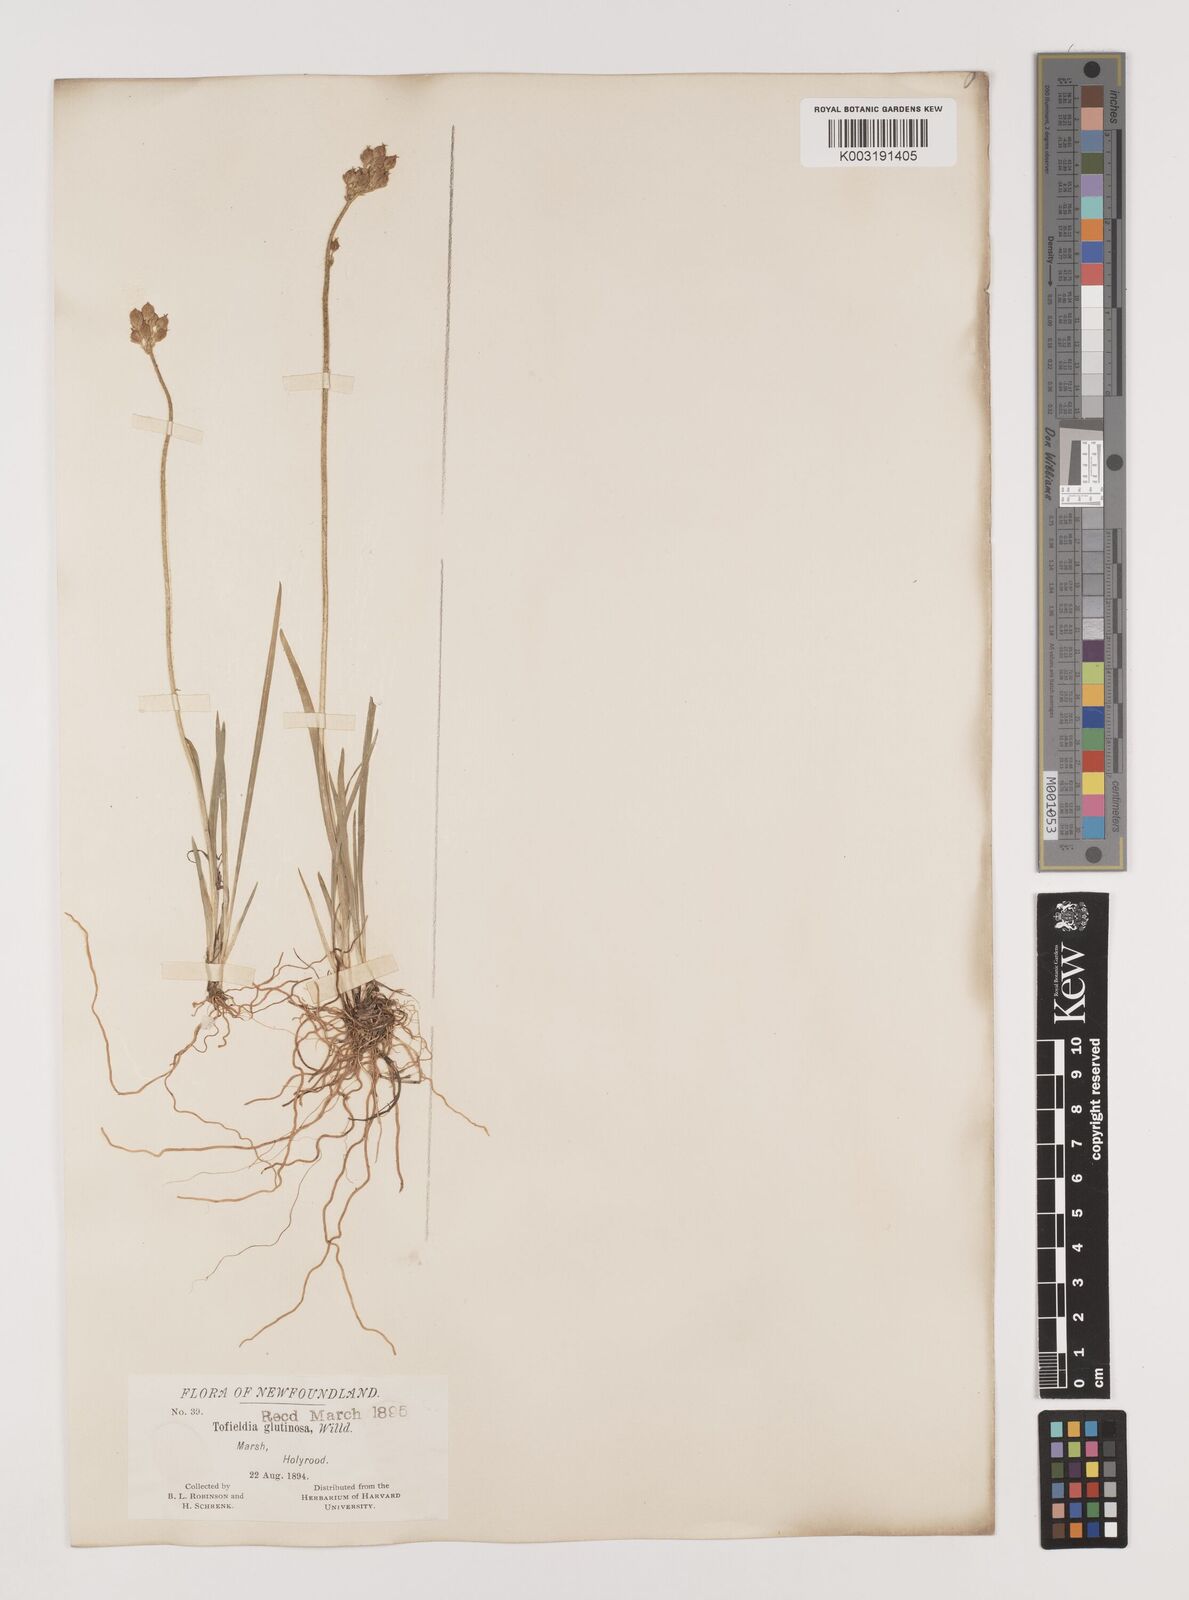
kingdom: Plantae
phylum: Tracheophyta
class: Liliopsida
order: Alismatales
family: Tofieldiaceae
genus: Triantha
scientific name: Triantha glutinosa
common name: Glutinous tofieldia
